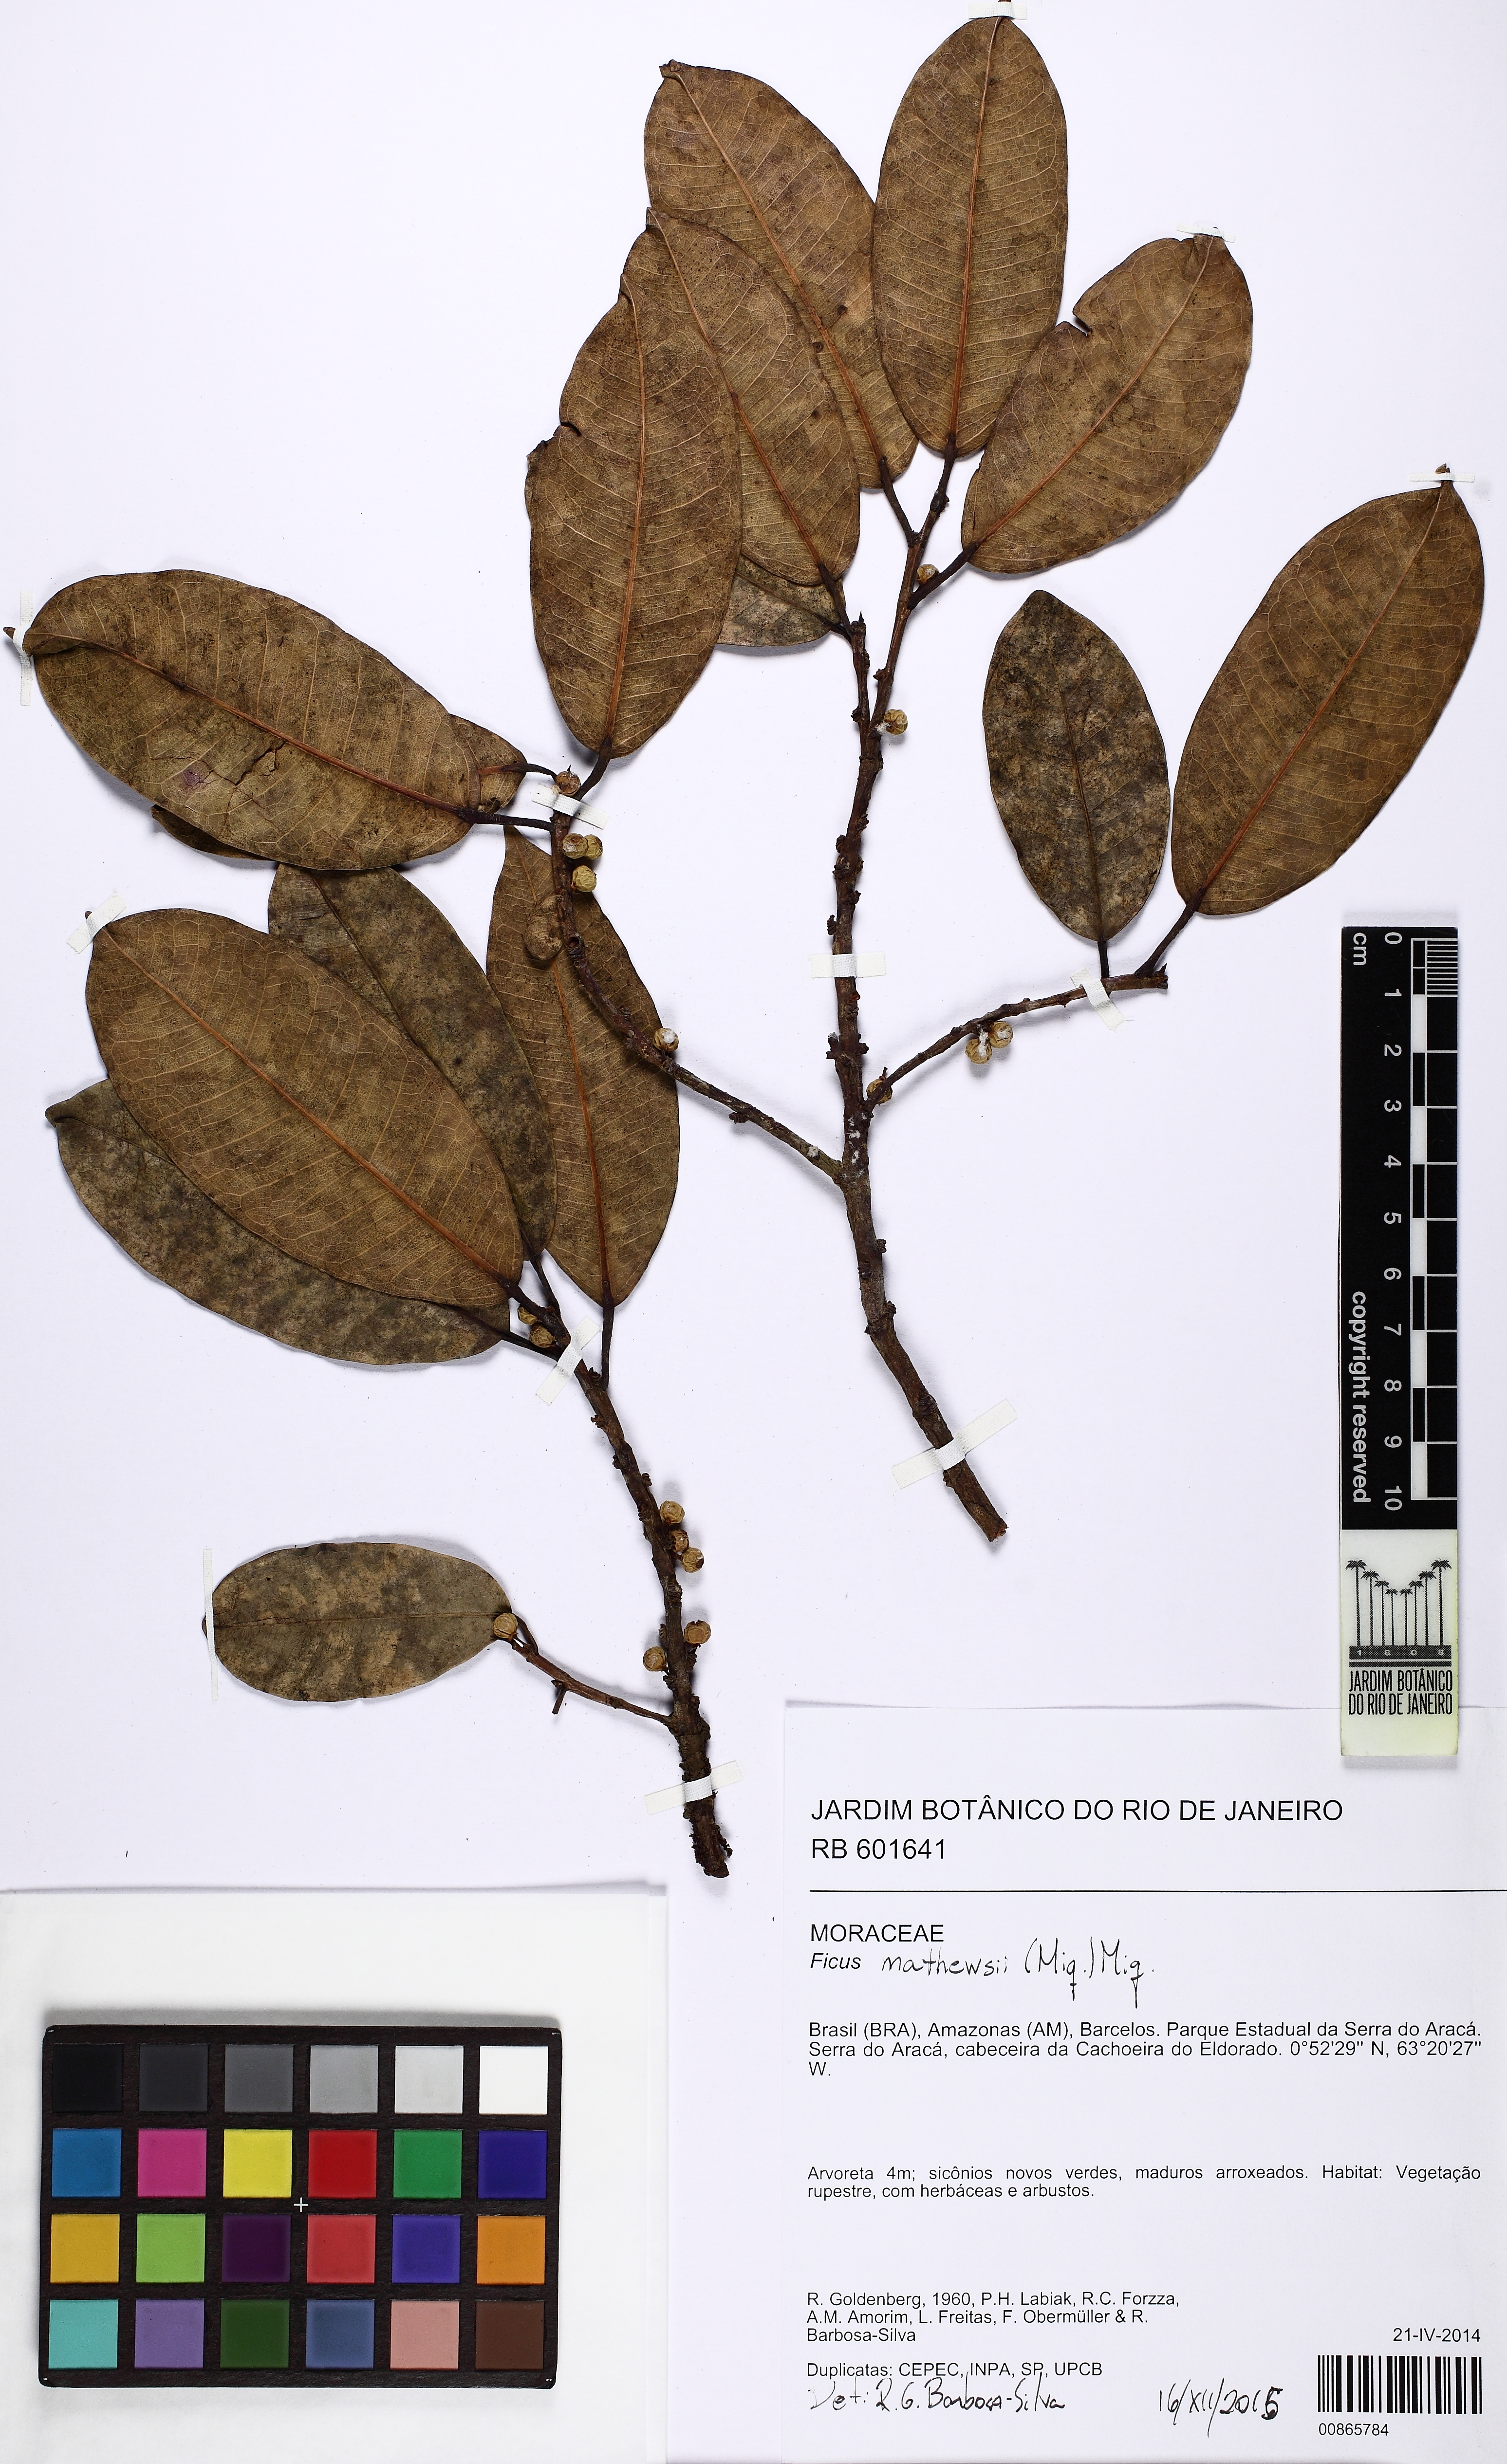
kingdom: Plantae
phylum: Tracheophyta
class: Magnoliopsida
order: Rosales
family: Moraceae
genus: Ficus
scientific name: Ficus mathewsii
